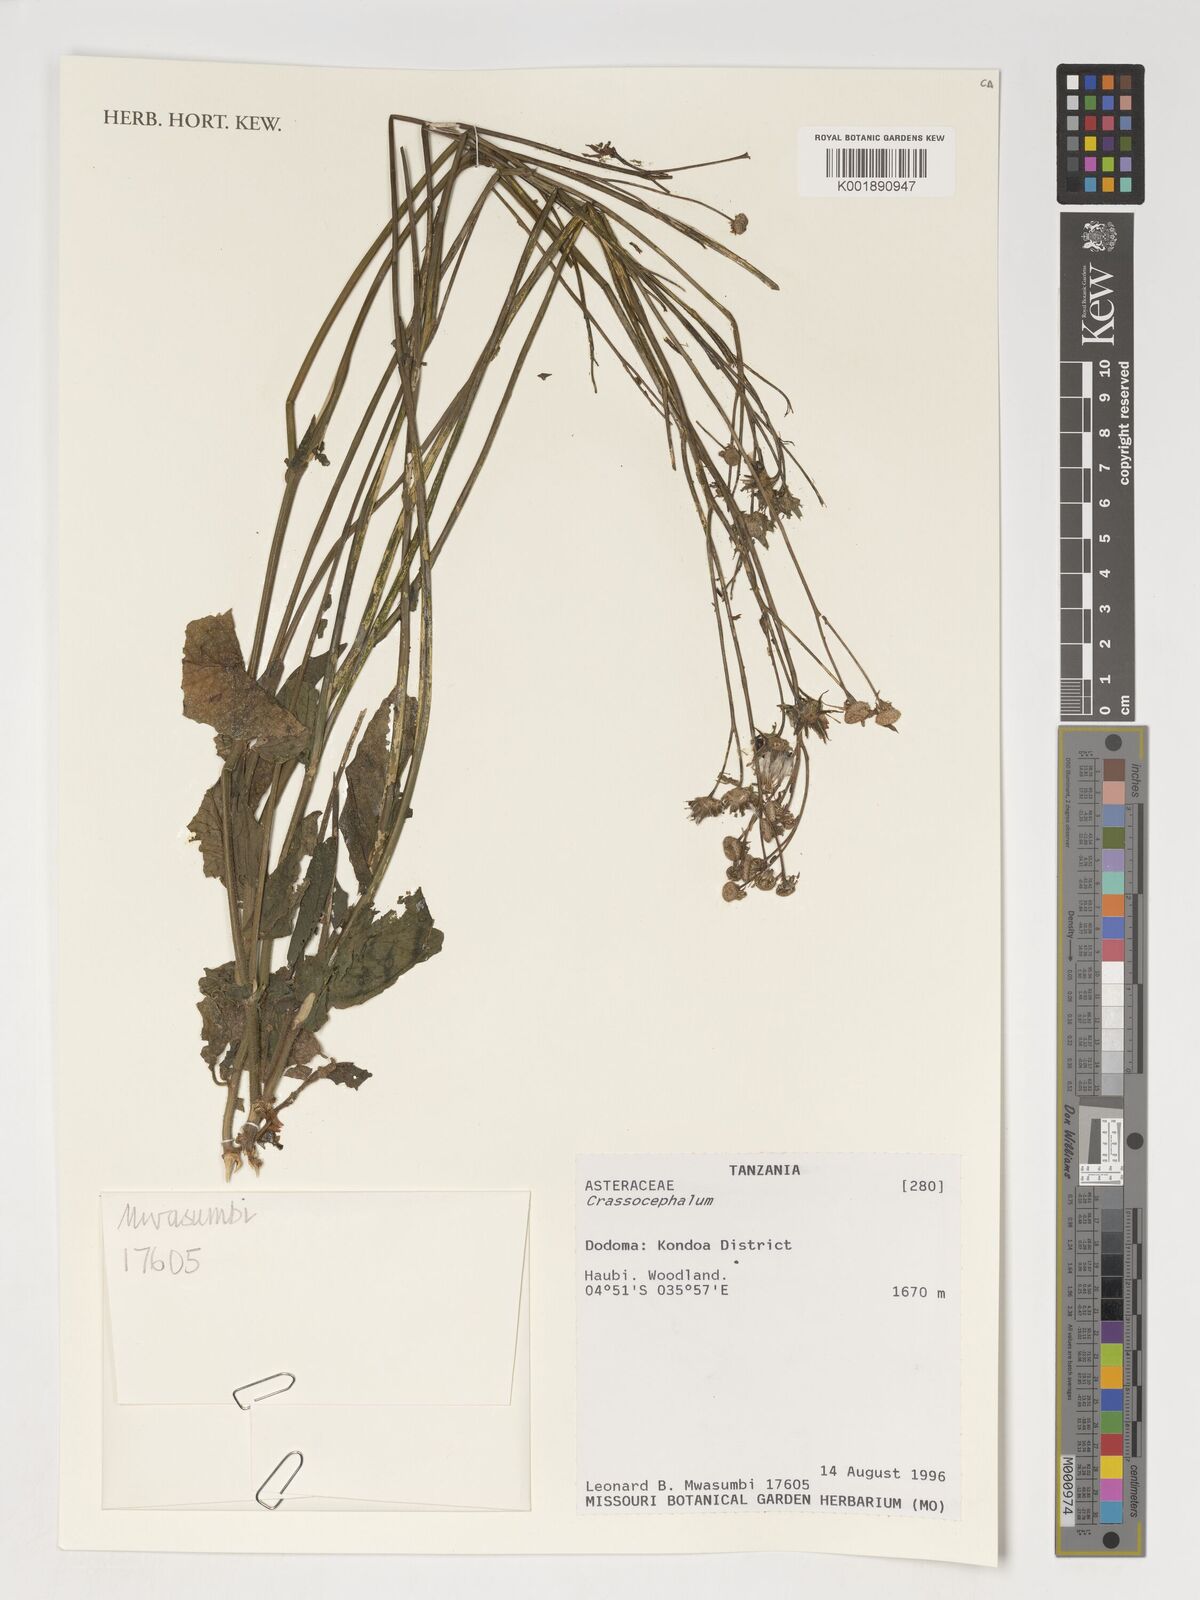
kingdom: Plantae
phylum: Tracheophyta
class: Magnoliopsida
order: Asterales
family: Asteraceae
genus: Crassocephalum
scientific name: Crassocephalum
